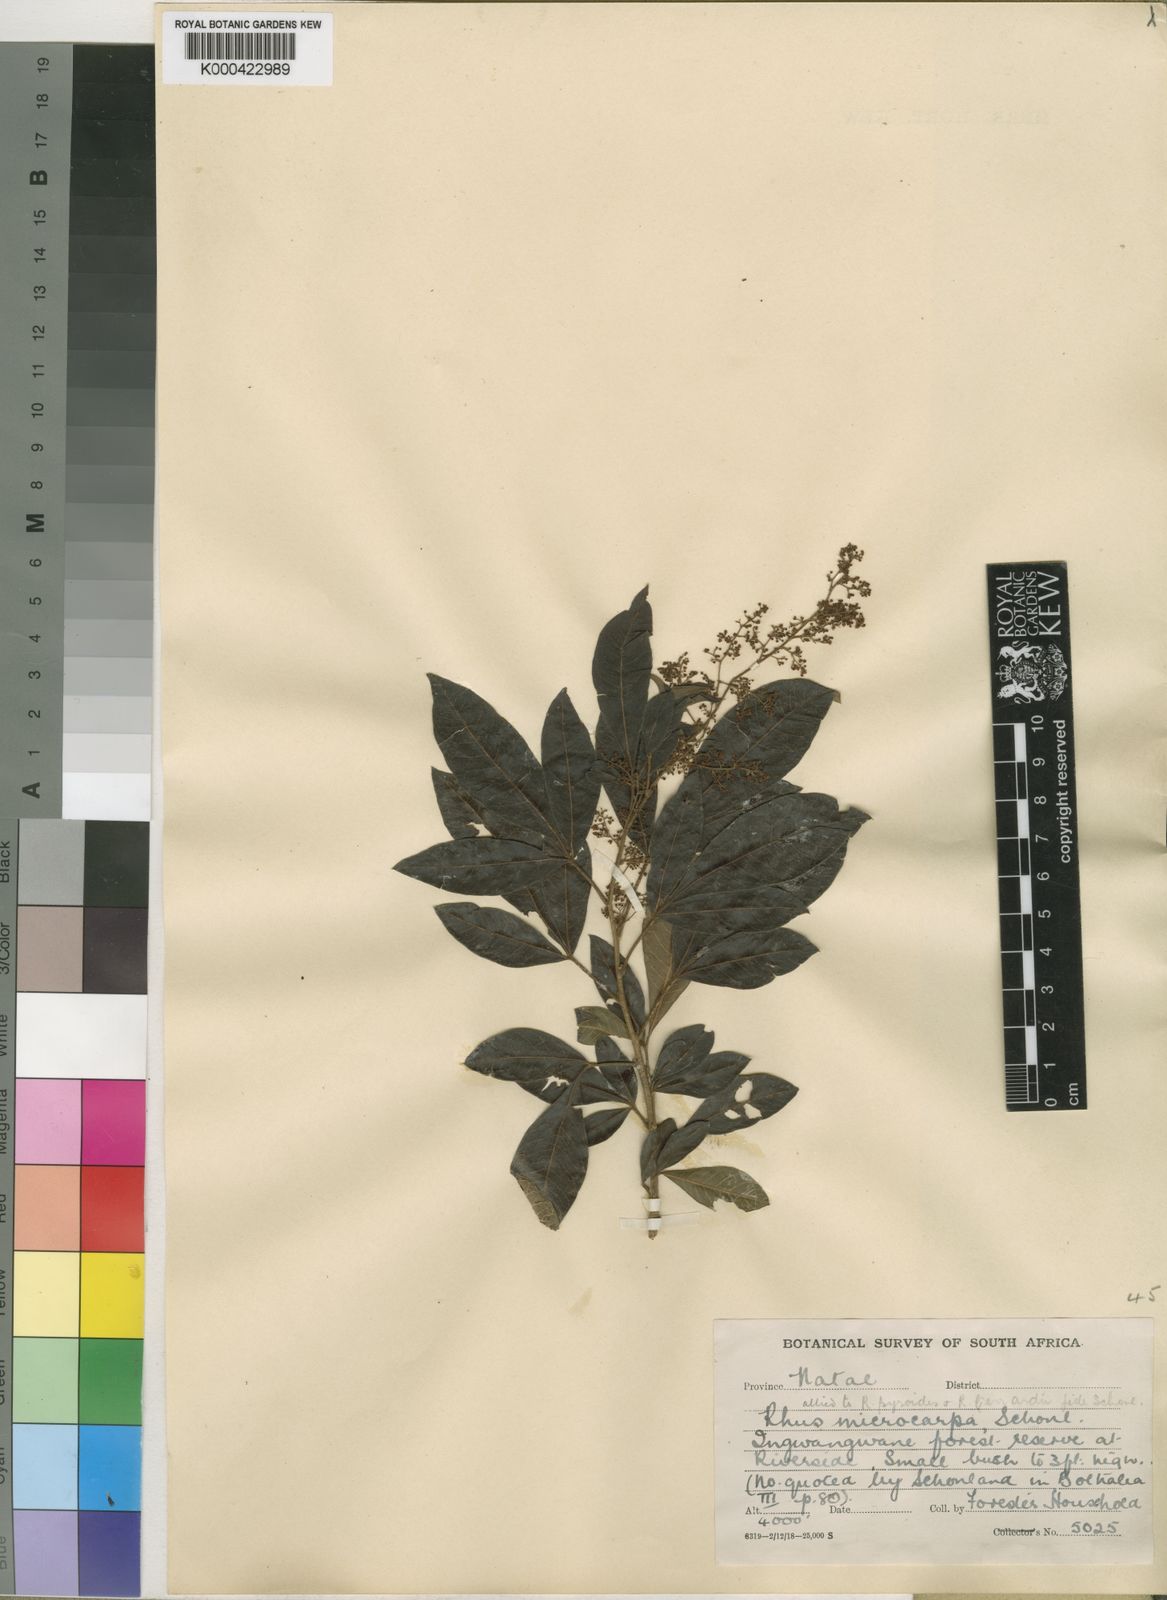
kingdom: Plantae
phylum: Tracheophyta
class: Magnoliopsida
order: Sapindales
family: Anacardiaceae
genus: Rhus
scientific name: Rhus
